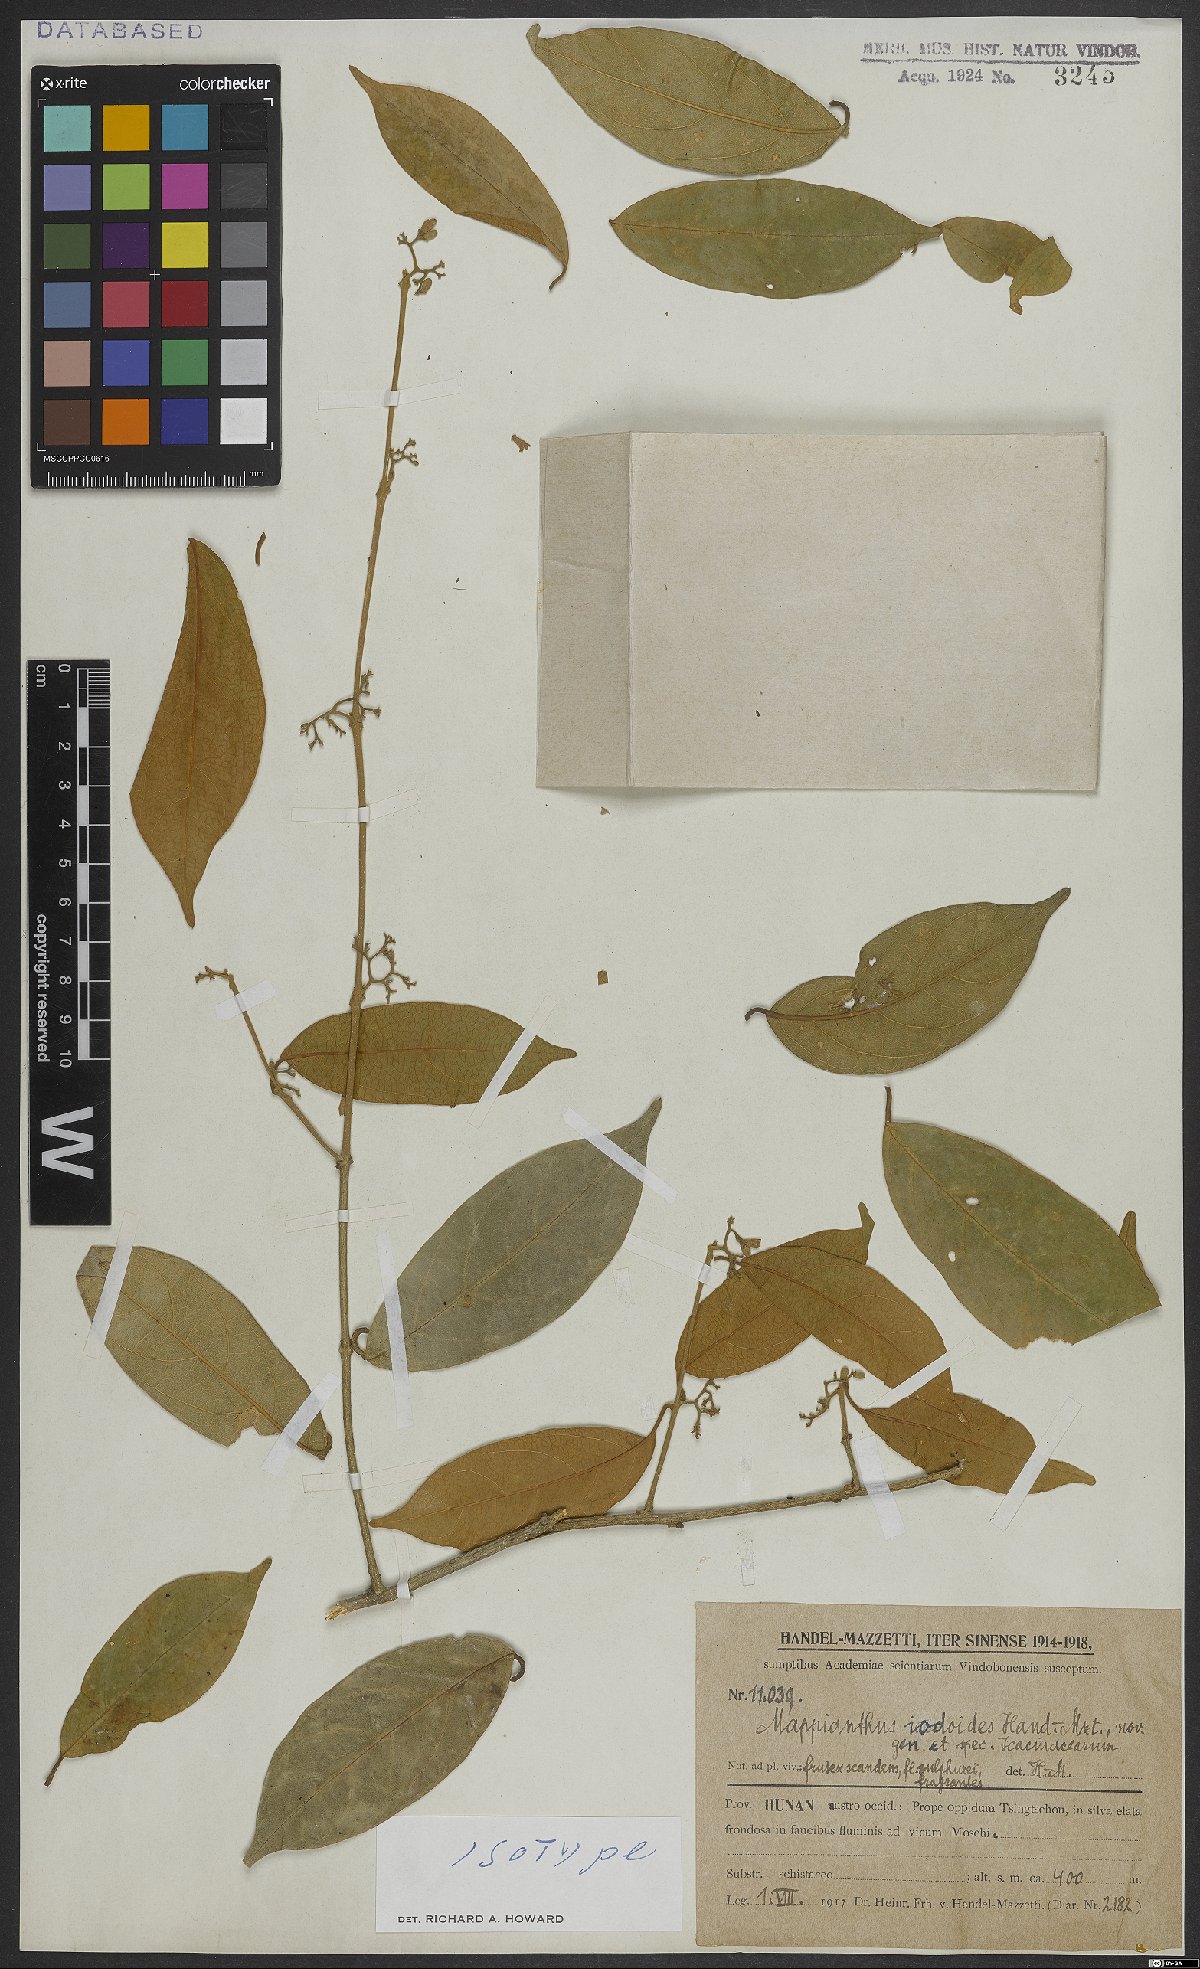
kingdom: Plantae
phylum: Tracheophyta
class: Magnoliopsida
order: Icacinales
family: Icacinaceae
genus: Mappianthus
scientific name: Mappianthus iodoides
